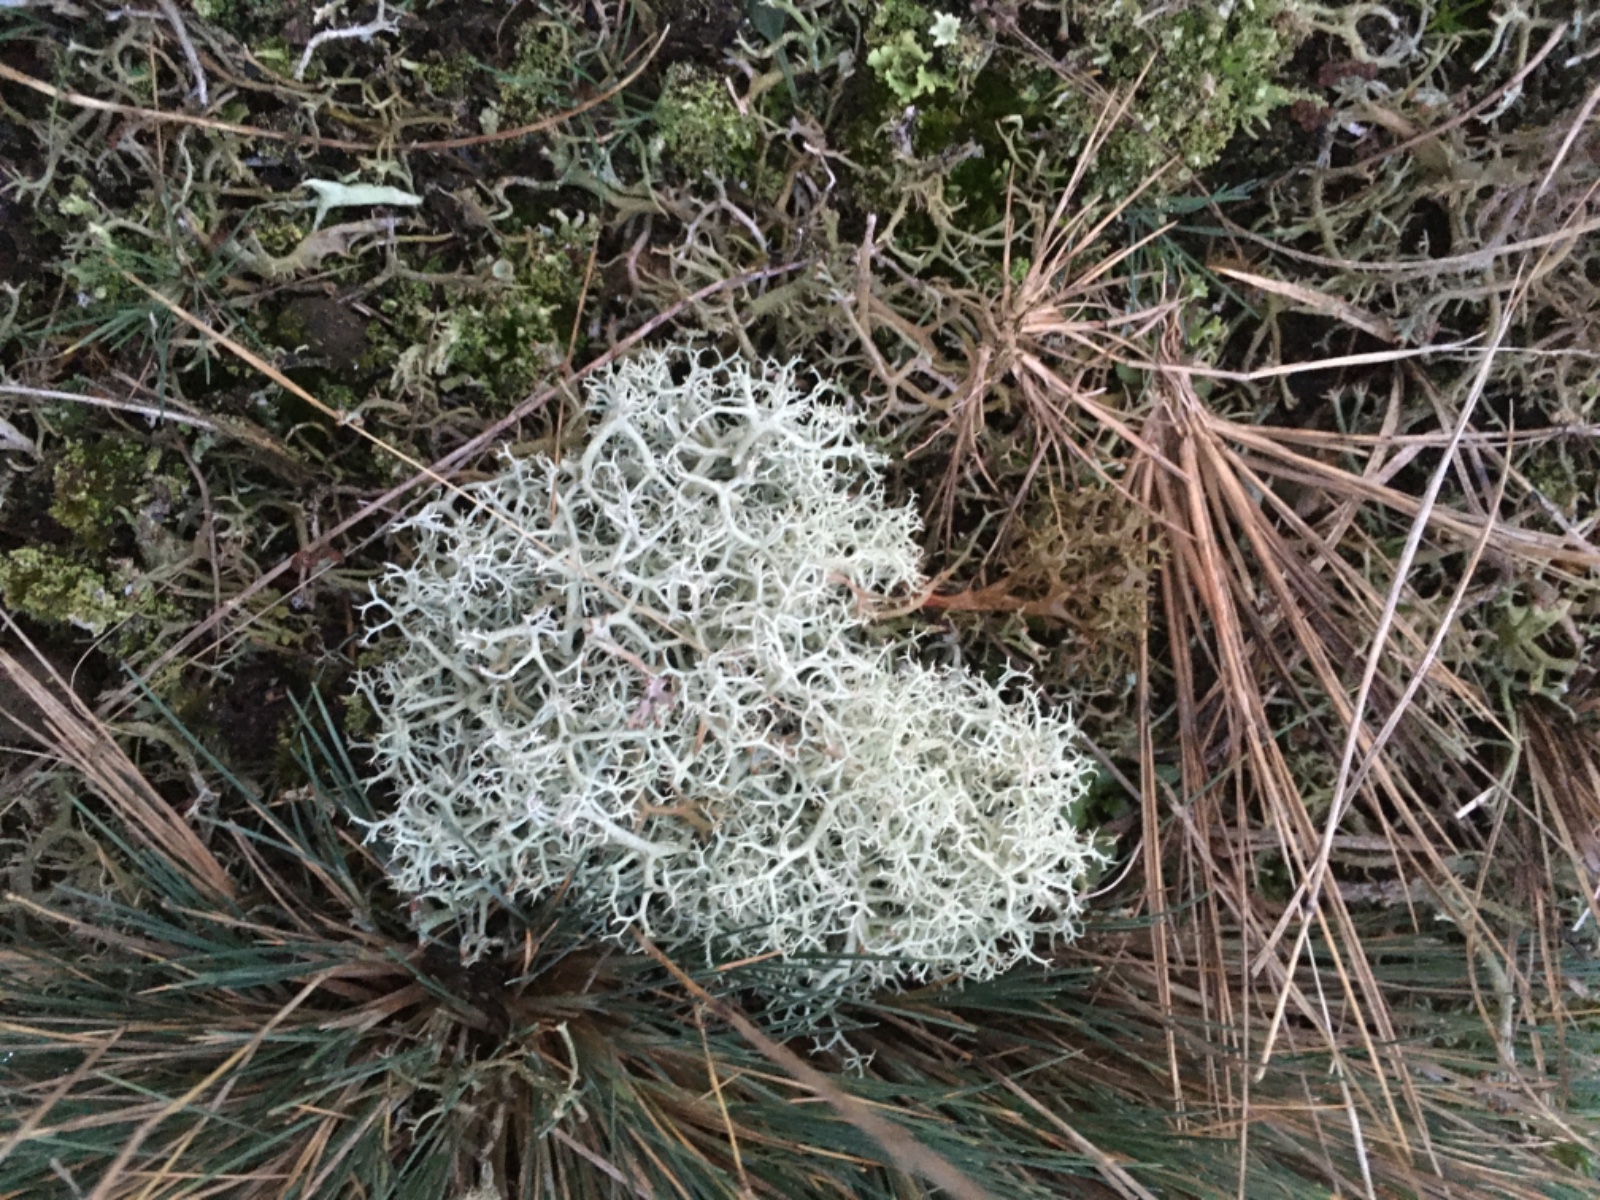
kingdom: Fungi
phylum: Ascomycota
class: Lecanoromycetes
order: Lecanorales
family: Cladoniaceae
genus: Cladonia
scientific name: Cladonia portentosa
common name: hede-rensdyrlav
